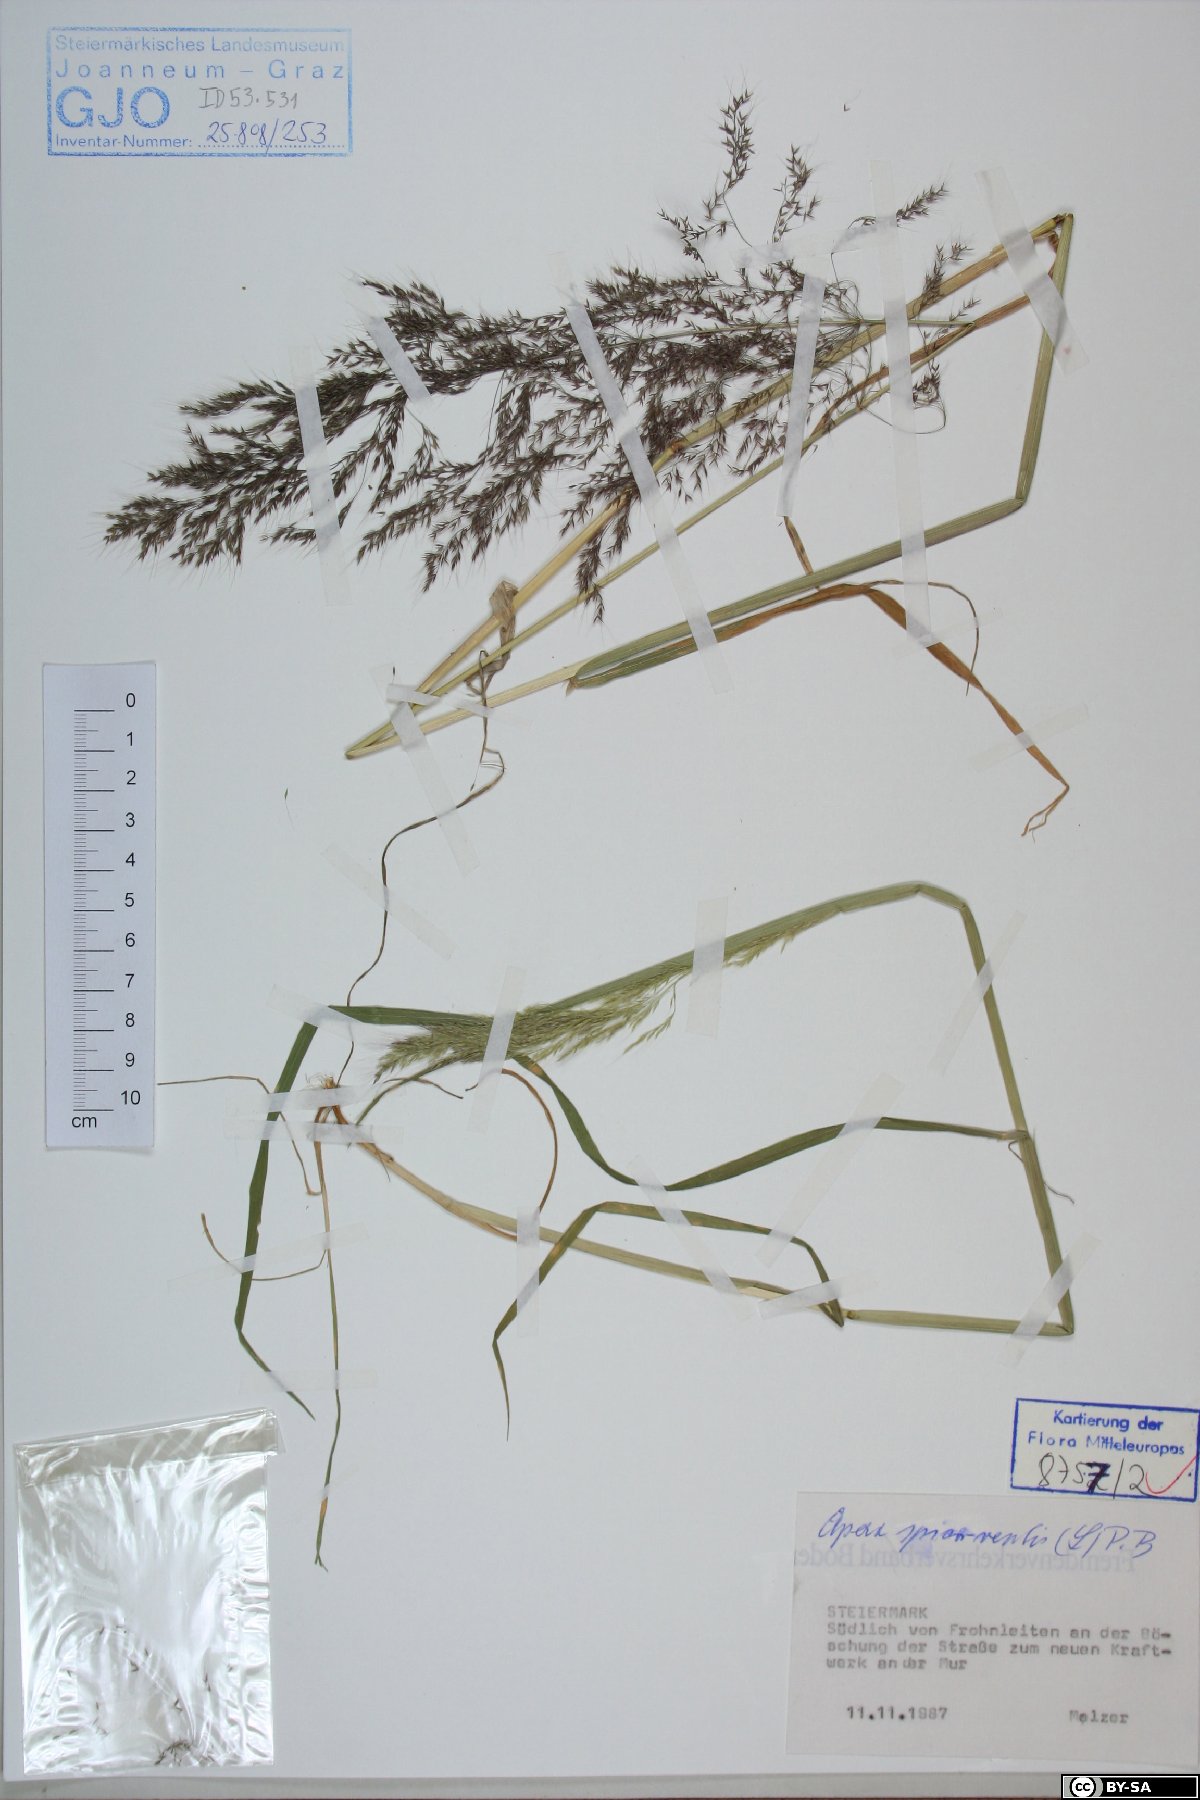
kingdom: Plantae
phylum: Tracheophyta
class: Liliopsida
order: Poales
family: Poaceae
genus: Apera
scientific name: Apera spica-venti
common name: Loose silky-bent
